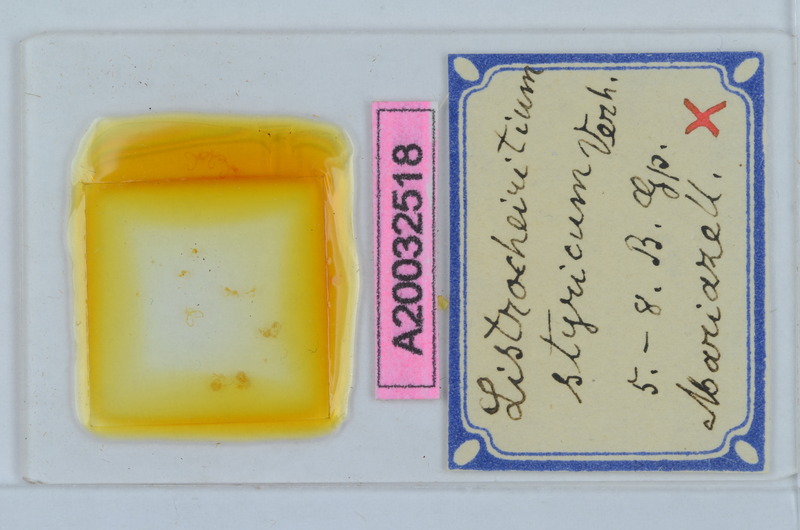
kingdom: Animalia
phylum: Arthropoda
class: Diplopoda
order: Chordeumatida
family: Craspedosomatidae
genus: Listrocheiritium
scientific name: Listrocheiritium styricum
